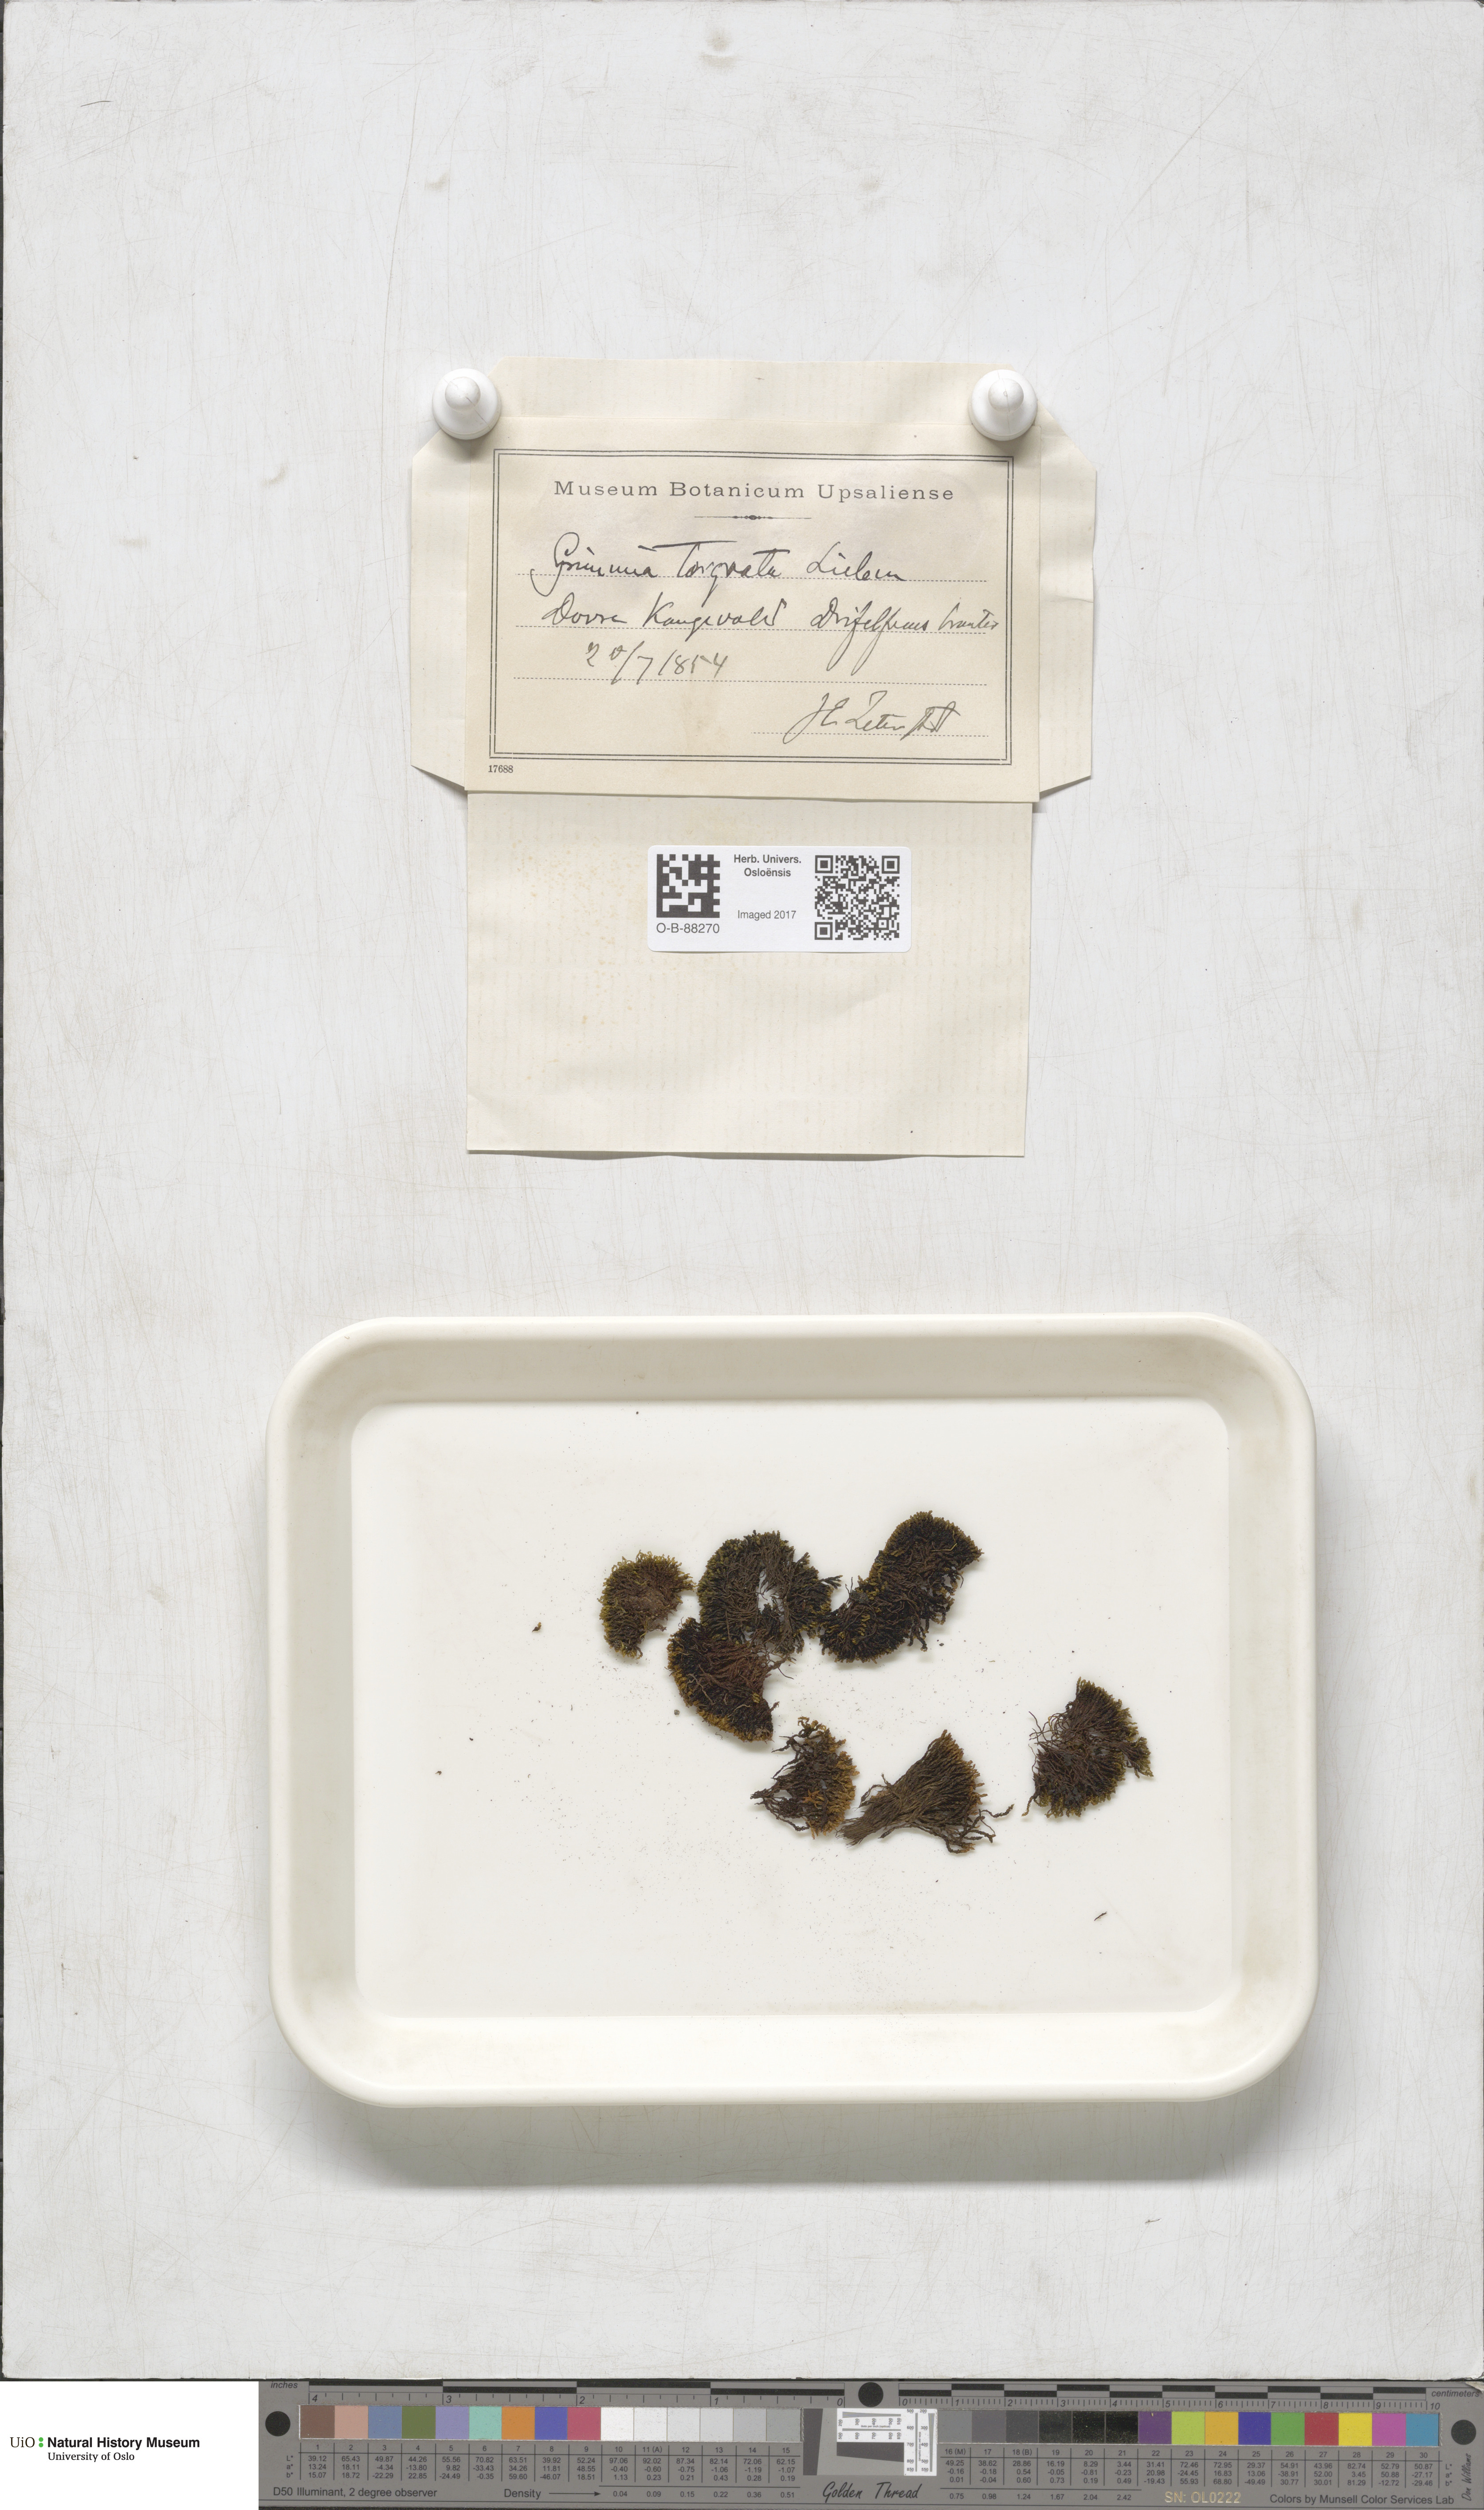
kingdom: Plantae
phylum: Bryophyta
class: Bryopsida
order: Grimmiales
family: Grimmiaceae
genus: Grimmia
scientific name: Grimmia torquata
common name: Twisted grimmia
